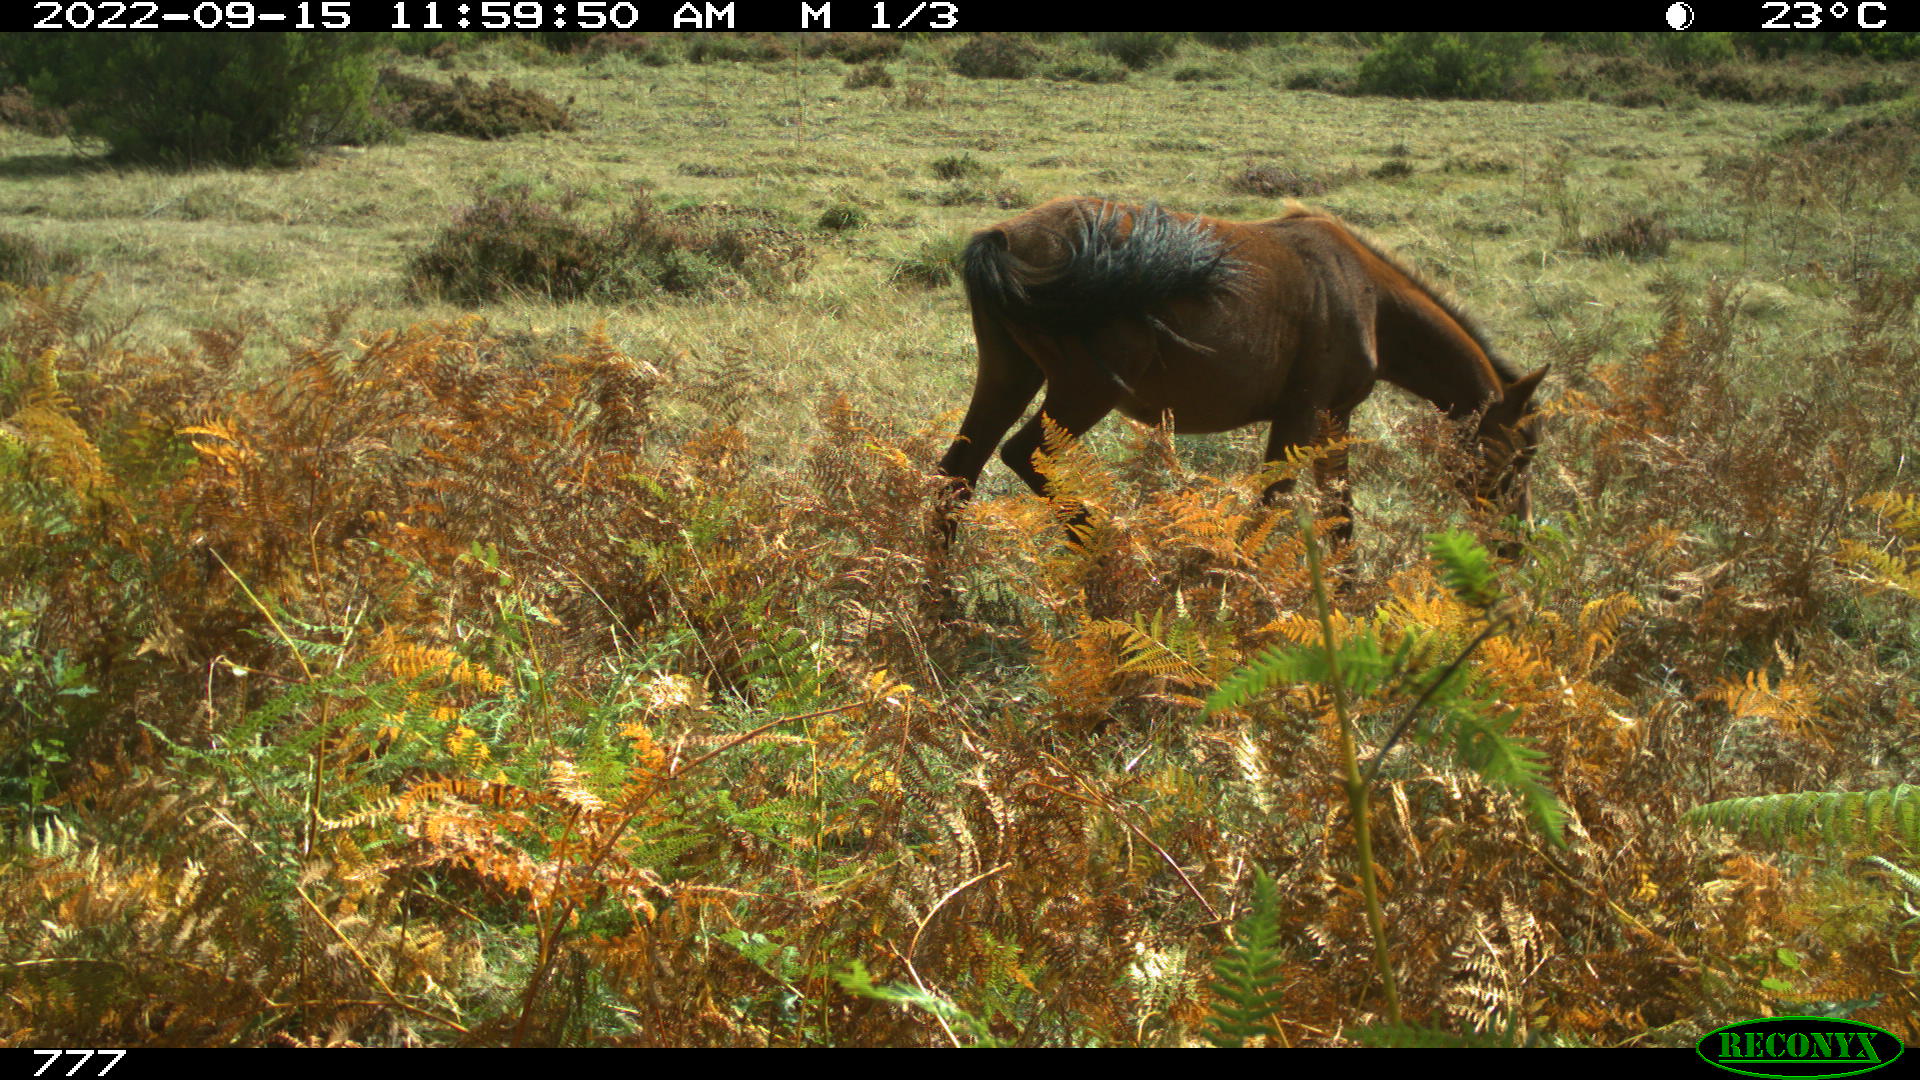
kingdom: Animalia
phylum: Chordata
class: Mammalia
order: Perissodactyla
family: Equidae
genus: Equus
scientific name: Equus caballus
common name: Horse
